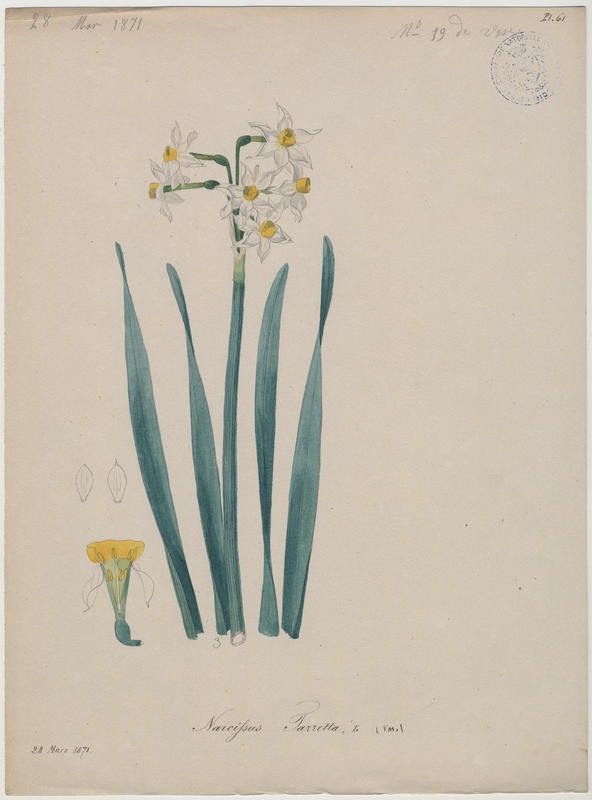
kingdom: Plantae
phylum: Tracheophyta
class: Liliopsida
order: Asparagales
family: Amaryllidaceae
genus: Narcissus
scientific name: Narcissus tazetta
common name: Bunch-flowered daffodil
